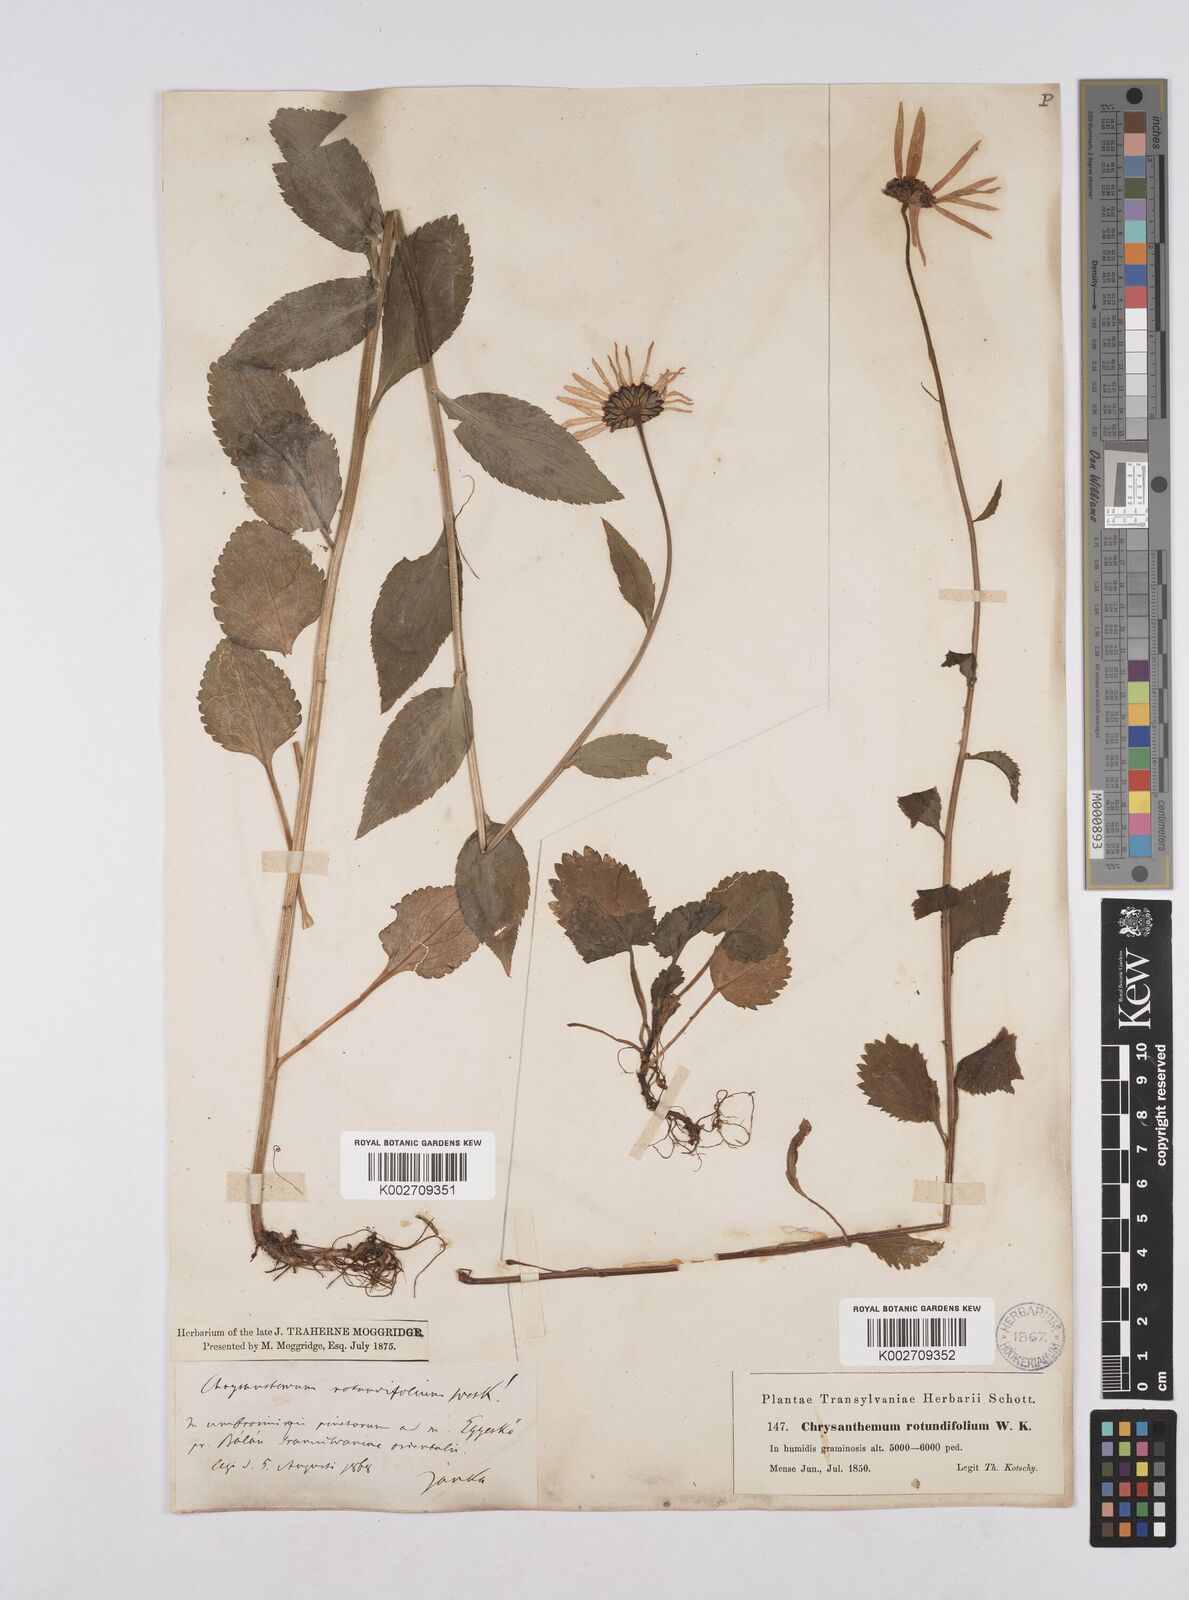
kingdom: Plantae
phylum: Tracheophyta
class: Magnoliopsida
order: Asterales
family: Asteraceae
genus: Leucanthemum
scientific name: Leucanthemum rotundifolium
